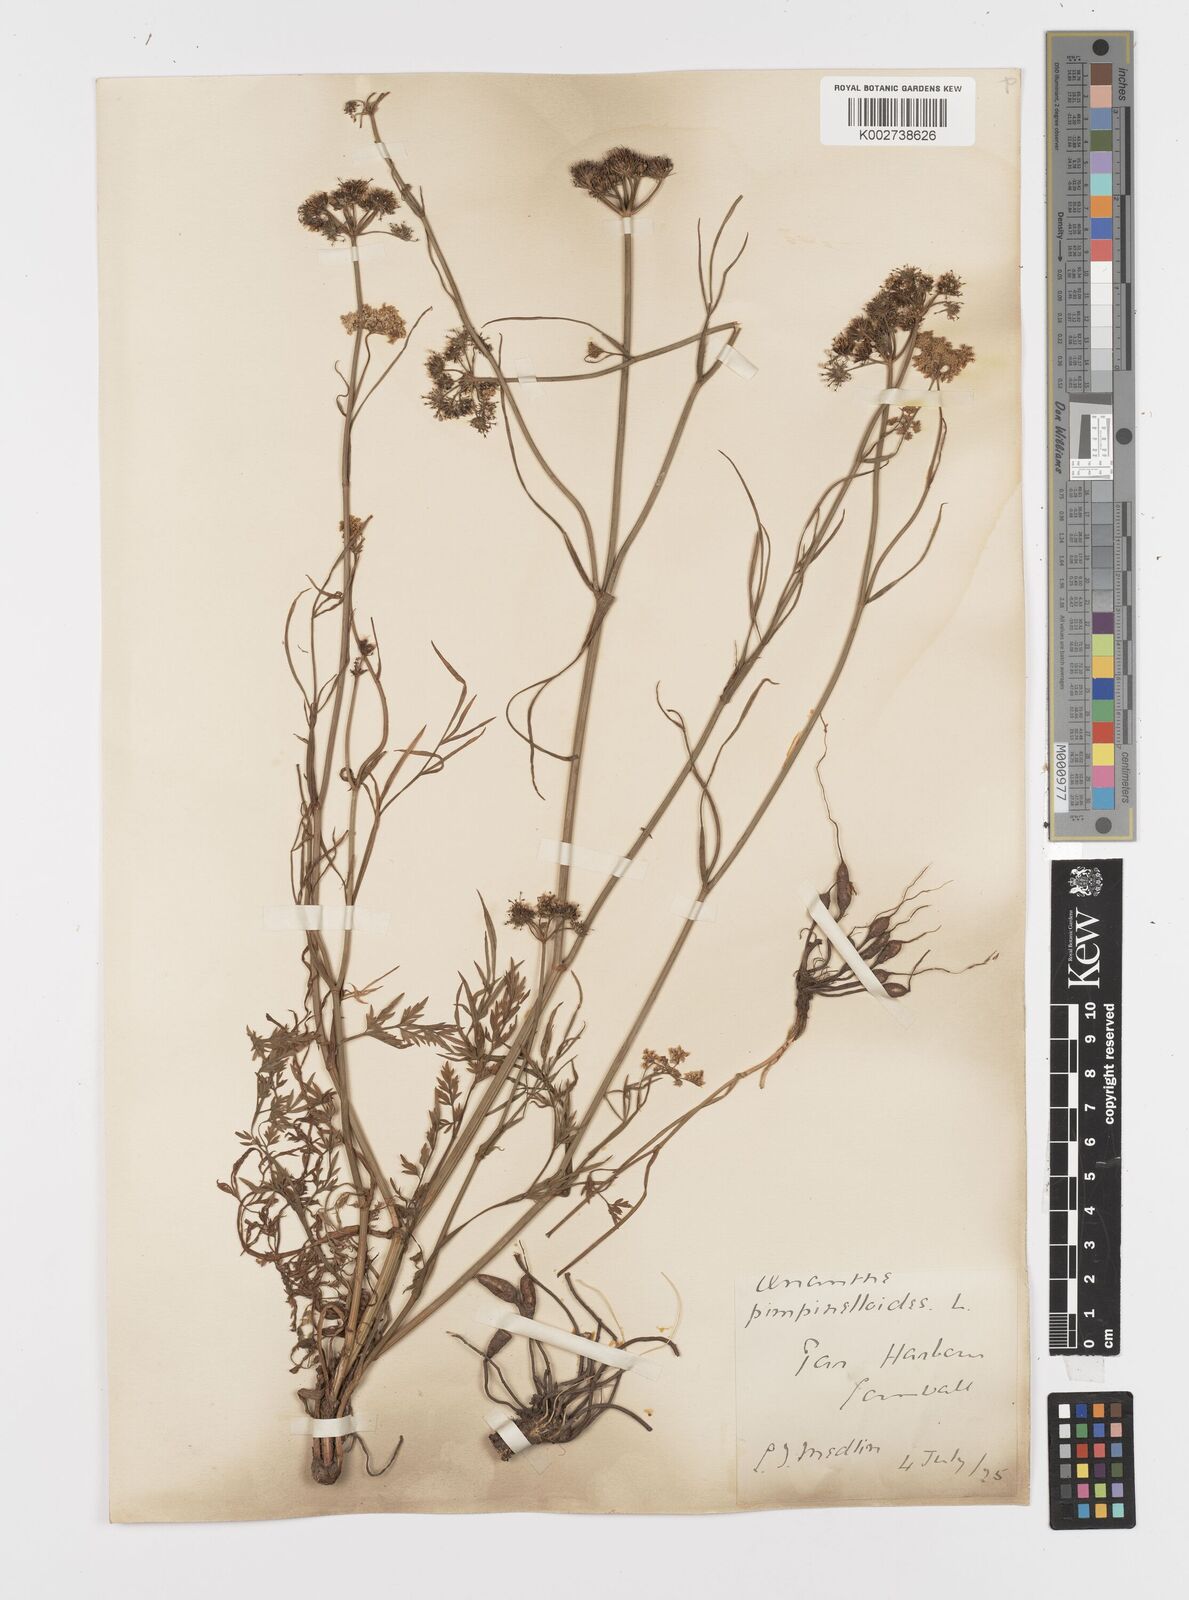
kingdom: Plantae
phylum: Tracheophyta
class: Magnoliopsida
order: Apiales
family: Apiaceae
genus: Oenanthe
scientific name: Oenanthe pimpinelloides
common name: Corky-fruited water-dropwort
